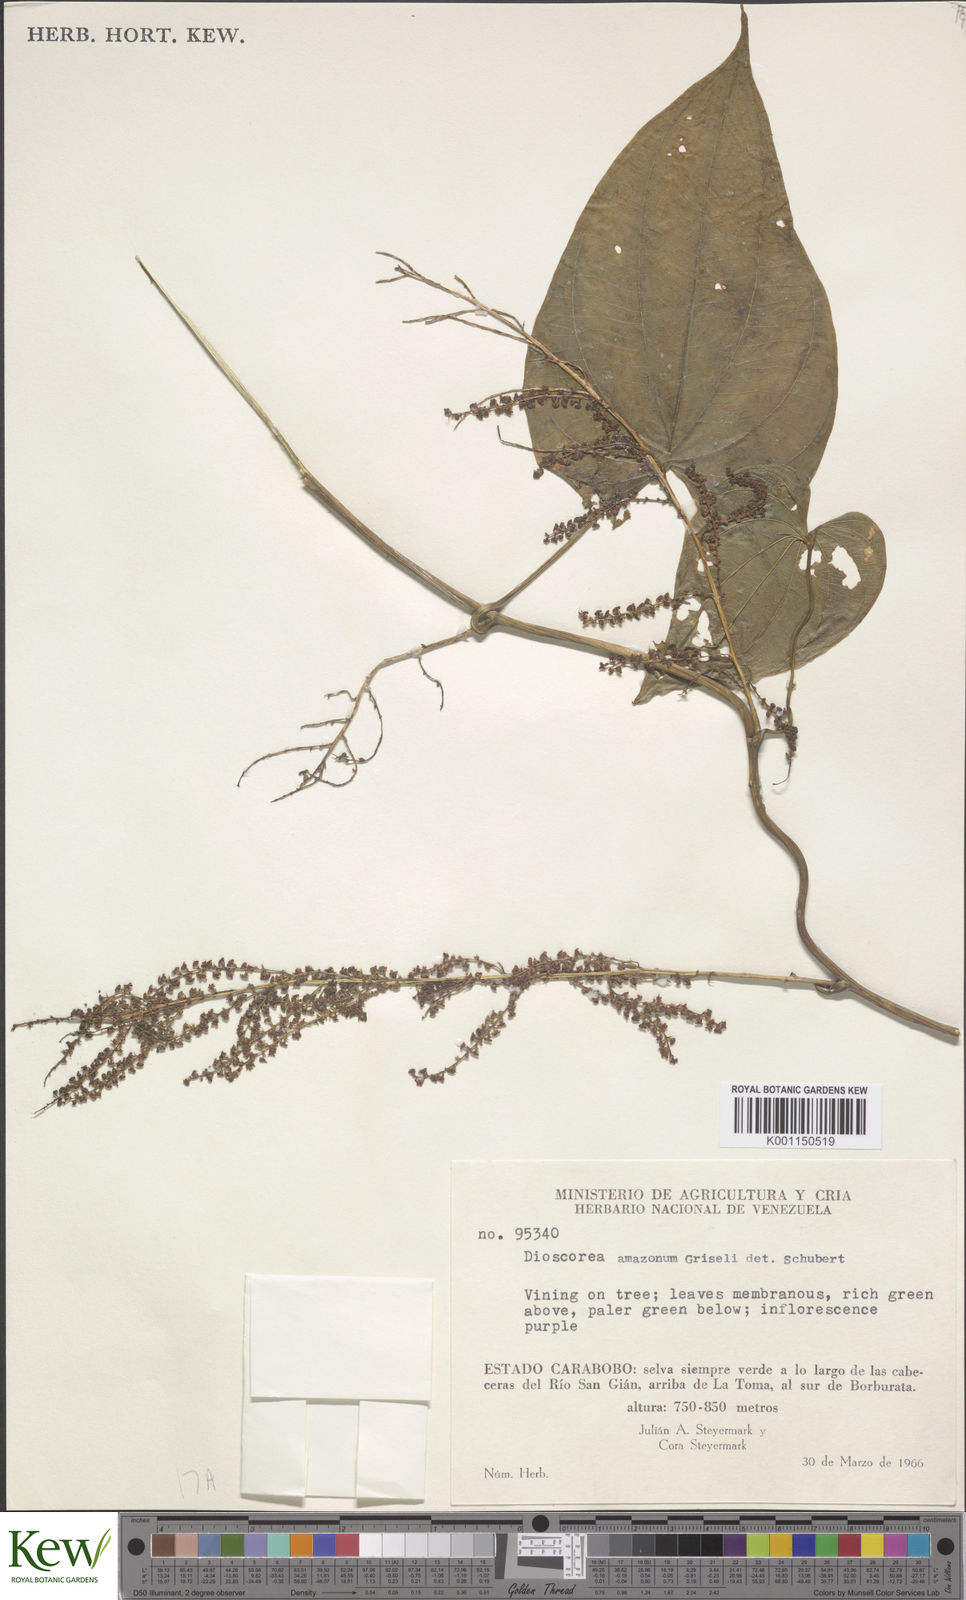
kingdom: Plantae
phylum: Tracheophyta
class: Liliopsida
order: Dioscoreales
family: Dioscoreaceae
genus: Dioscorea
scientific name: Dioscorea amazonum
